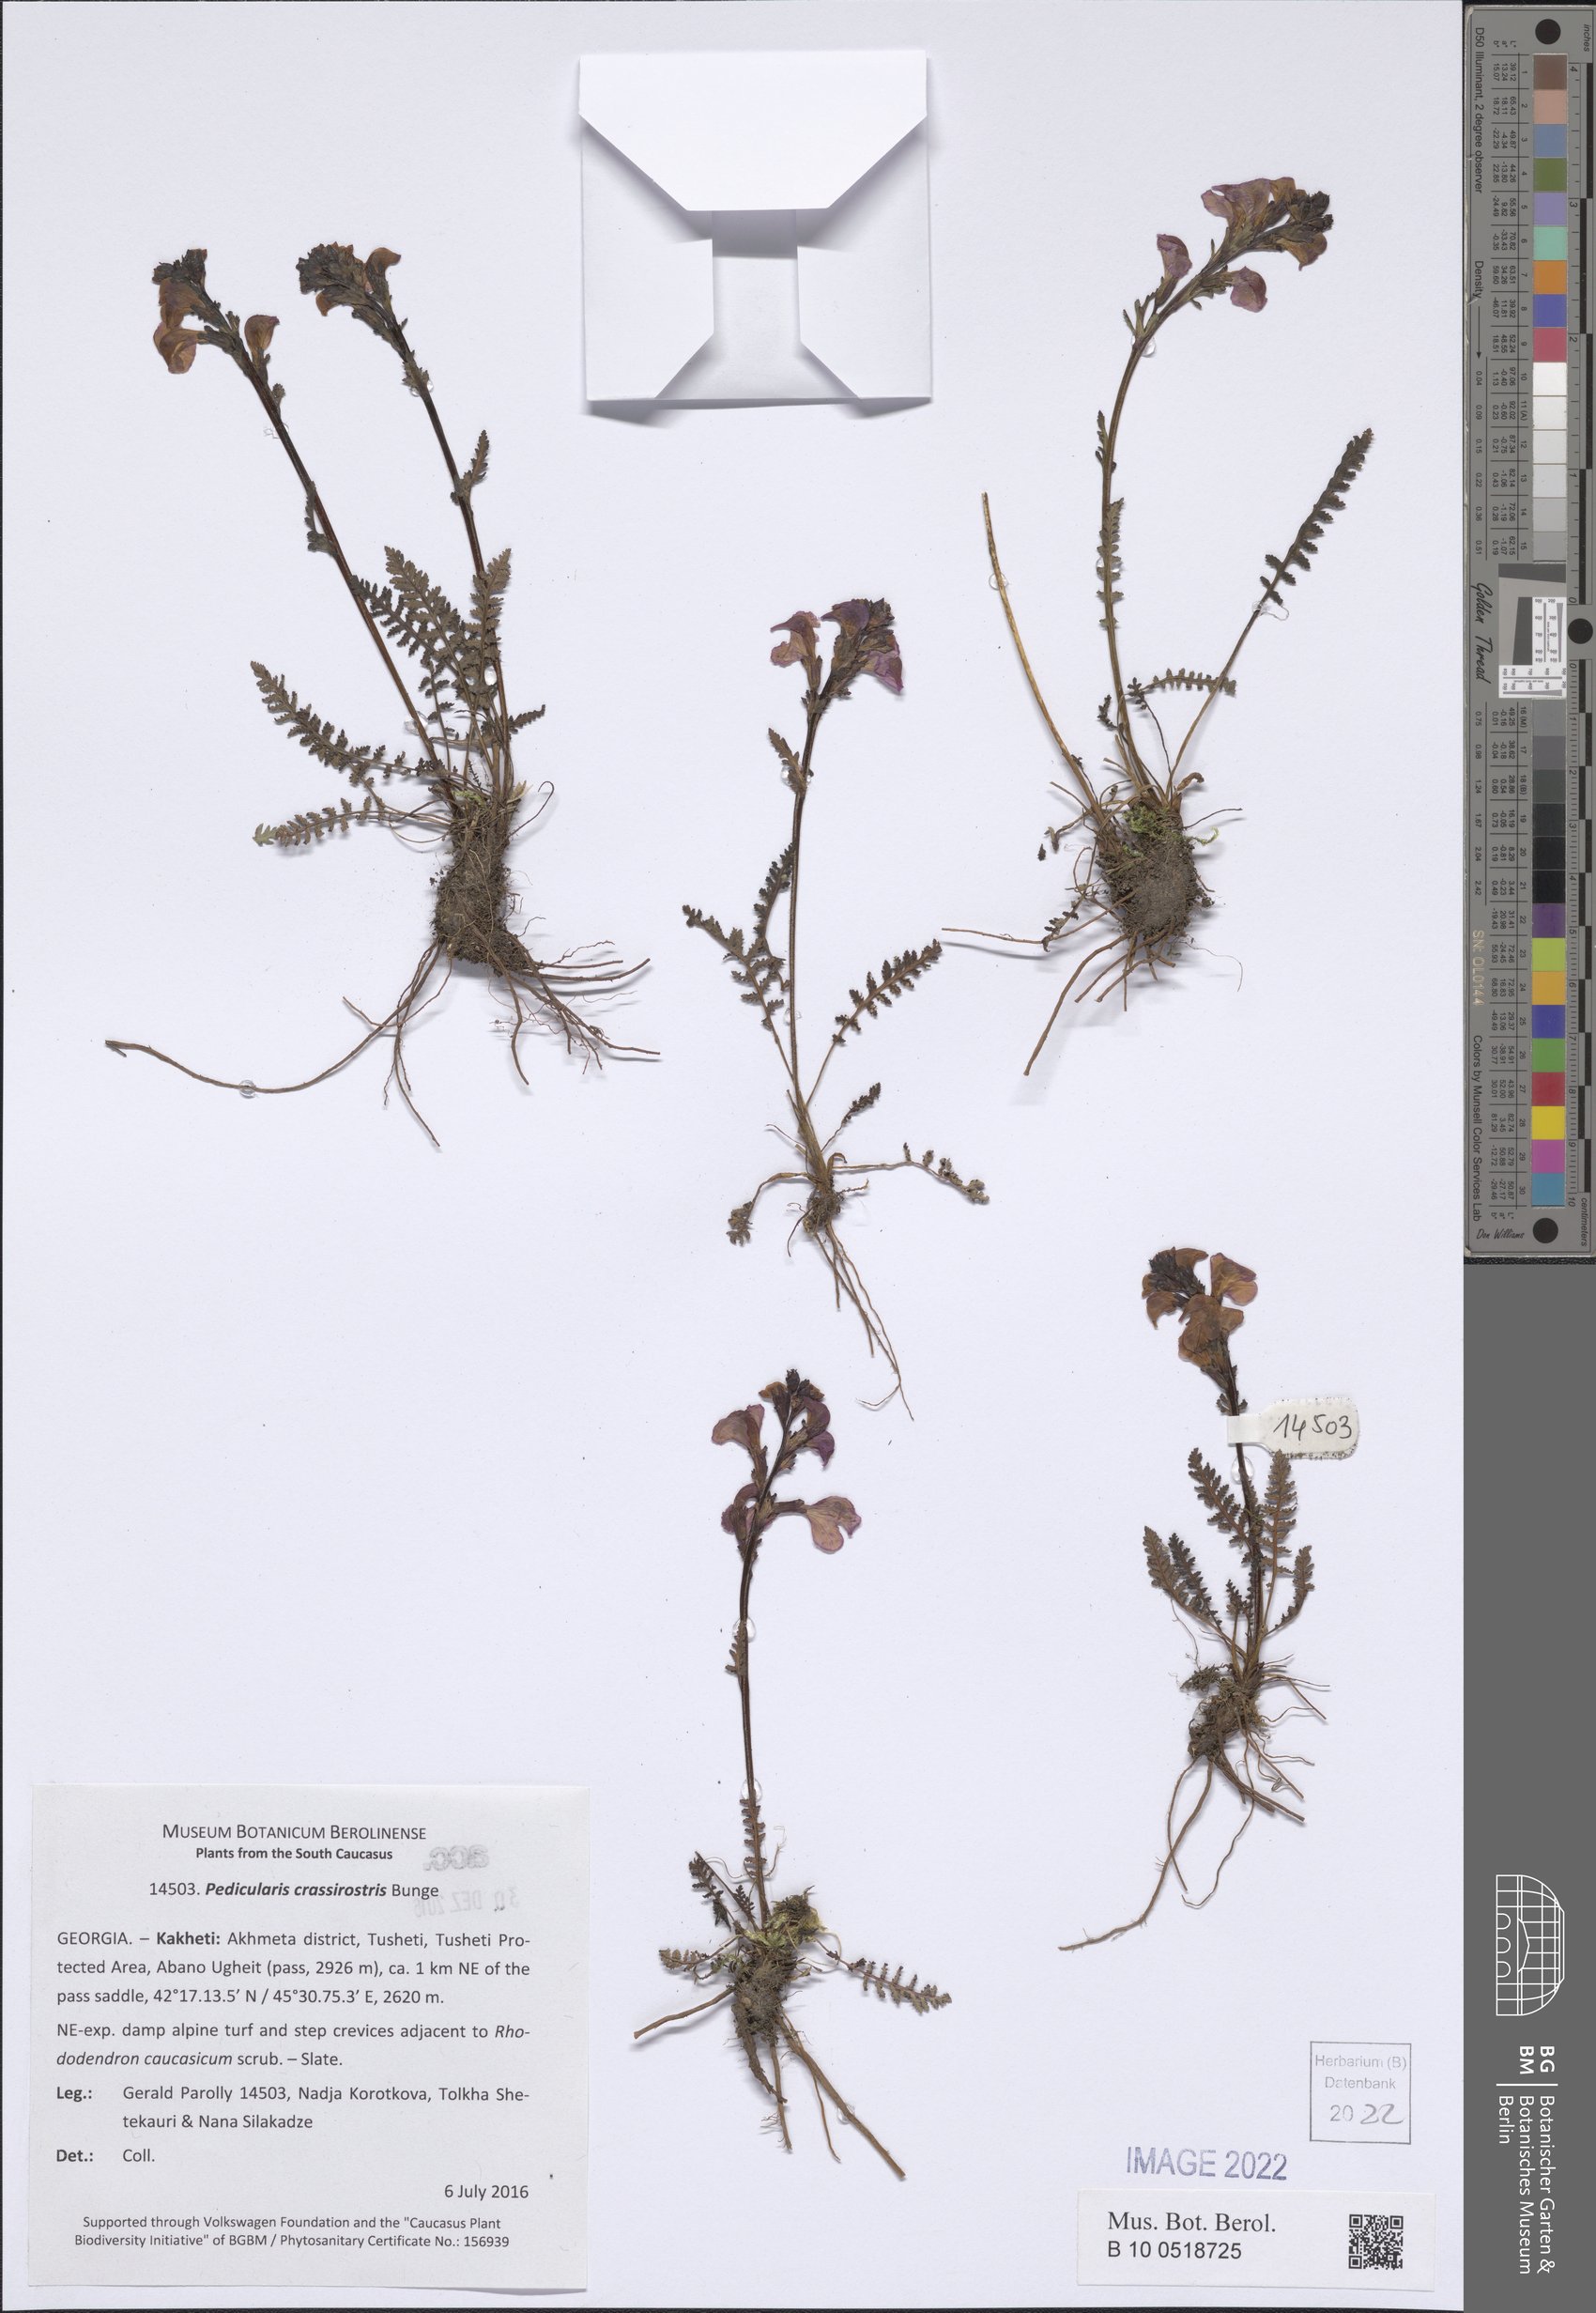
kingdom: Plantae
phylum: Tracheophyta
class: Magnoliopsida
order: Lamiales
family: Orobanchaceae
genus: Pedicularis
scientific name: Pedicularis crassirostris
